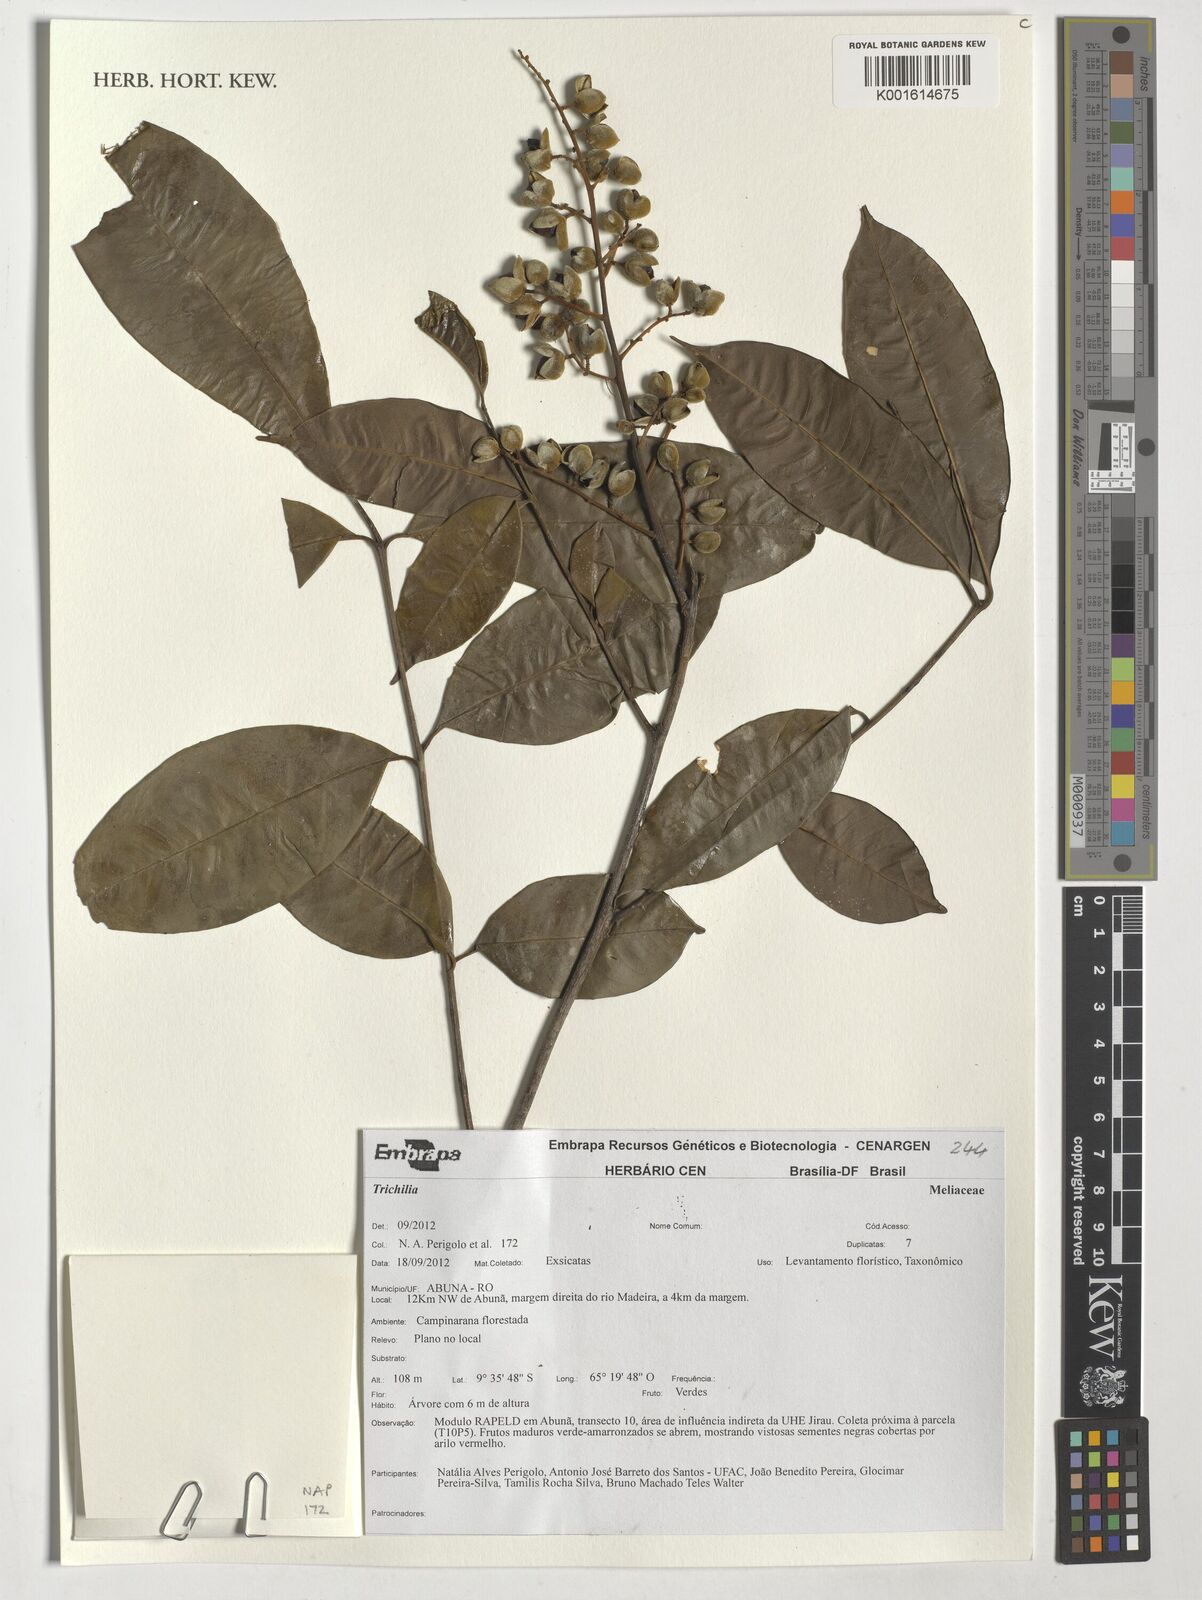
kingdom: Plantae
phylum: Tracheophyta
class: Magnoliopsida
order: Sapindales
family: Meliaceae
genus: Trichilia
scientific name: Trichilia
